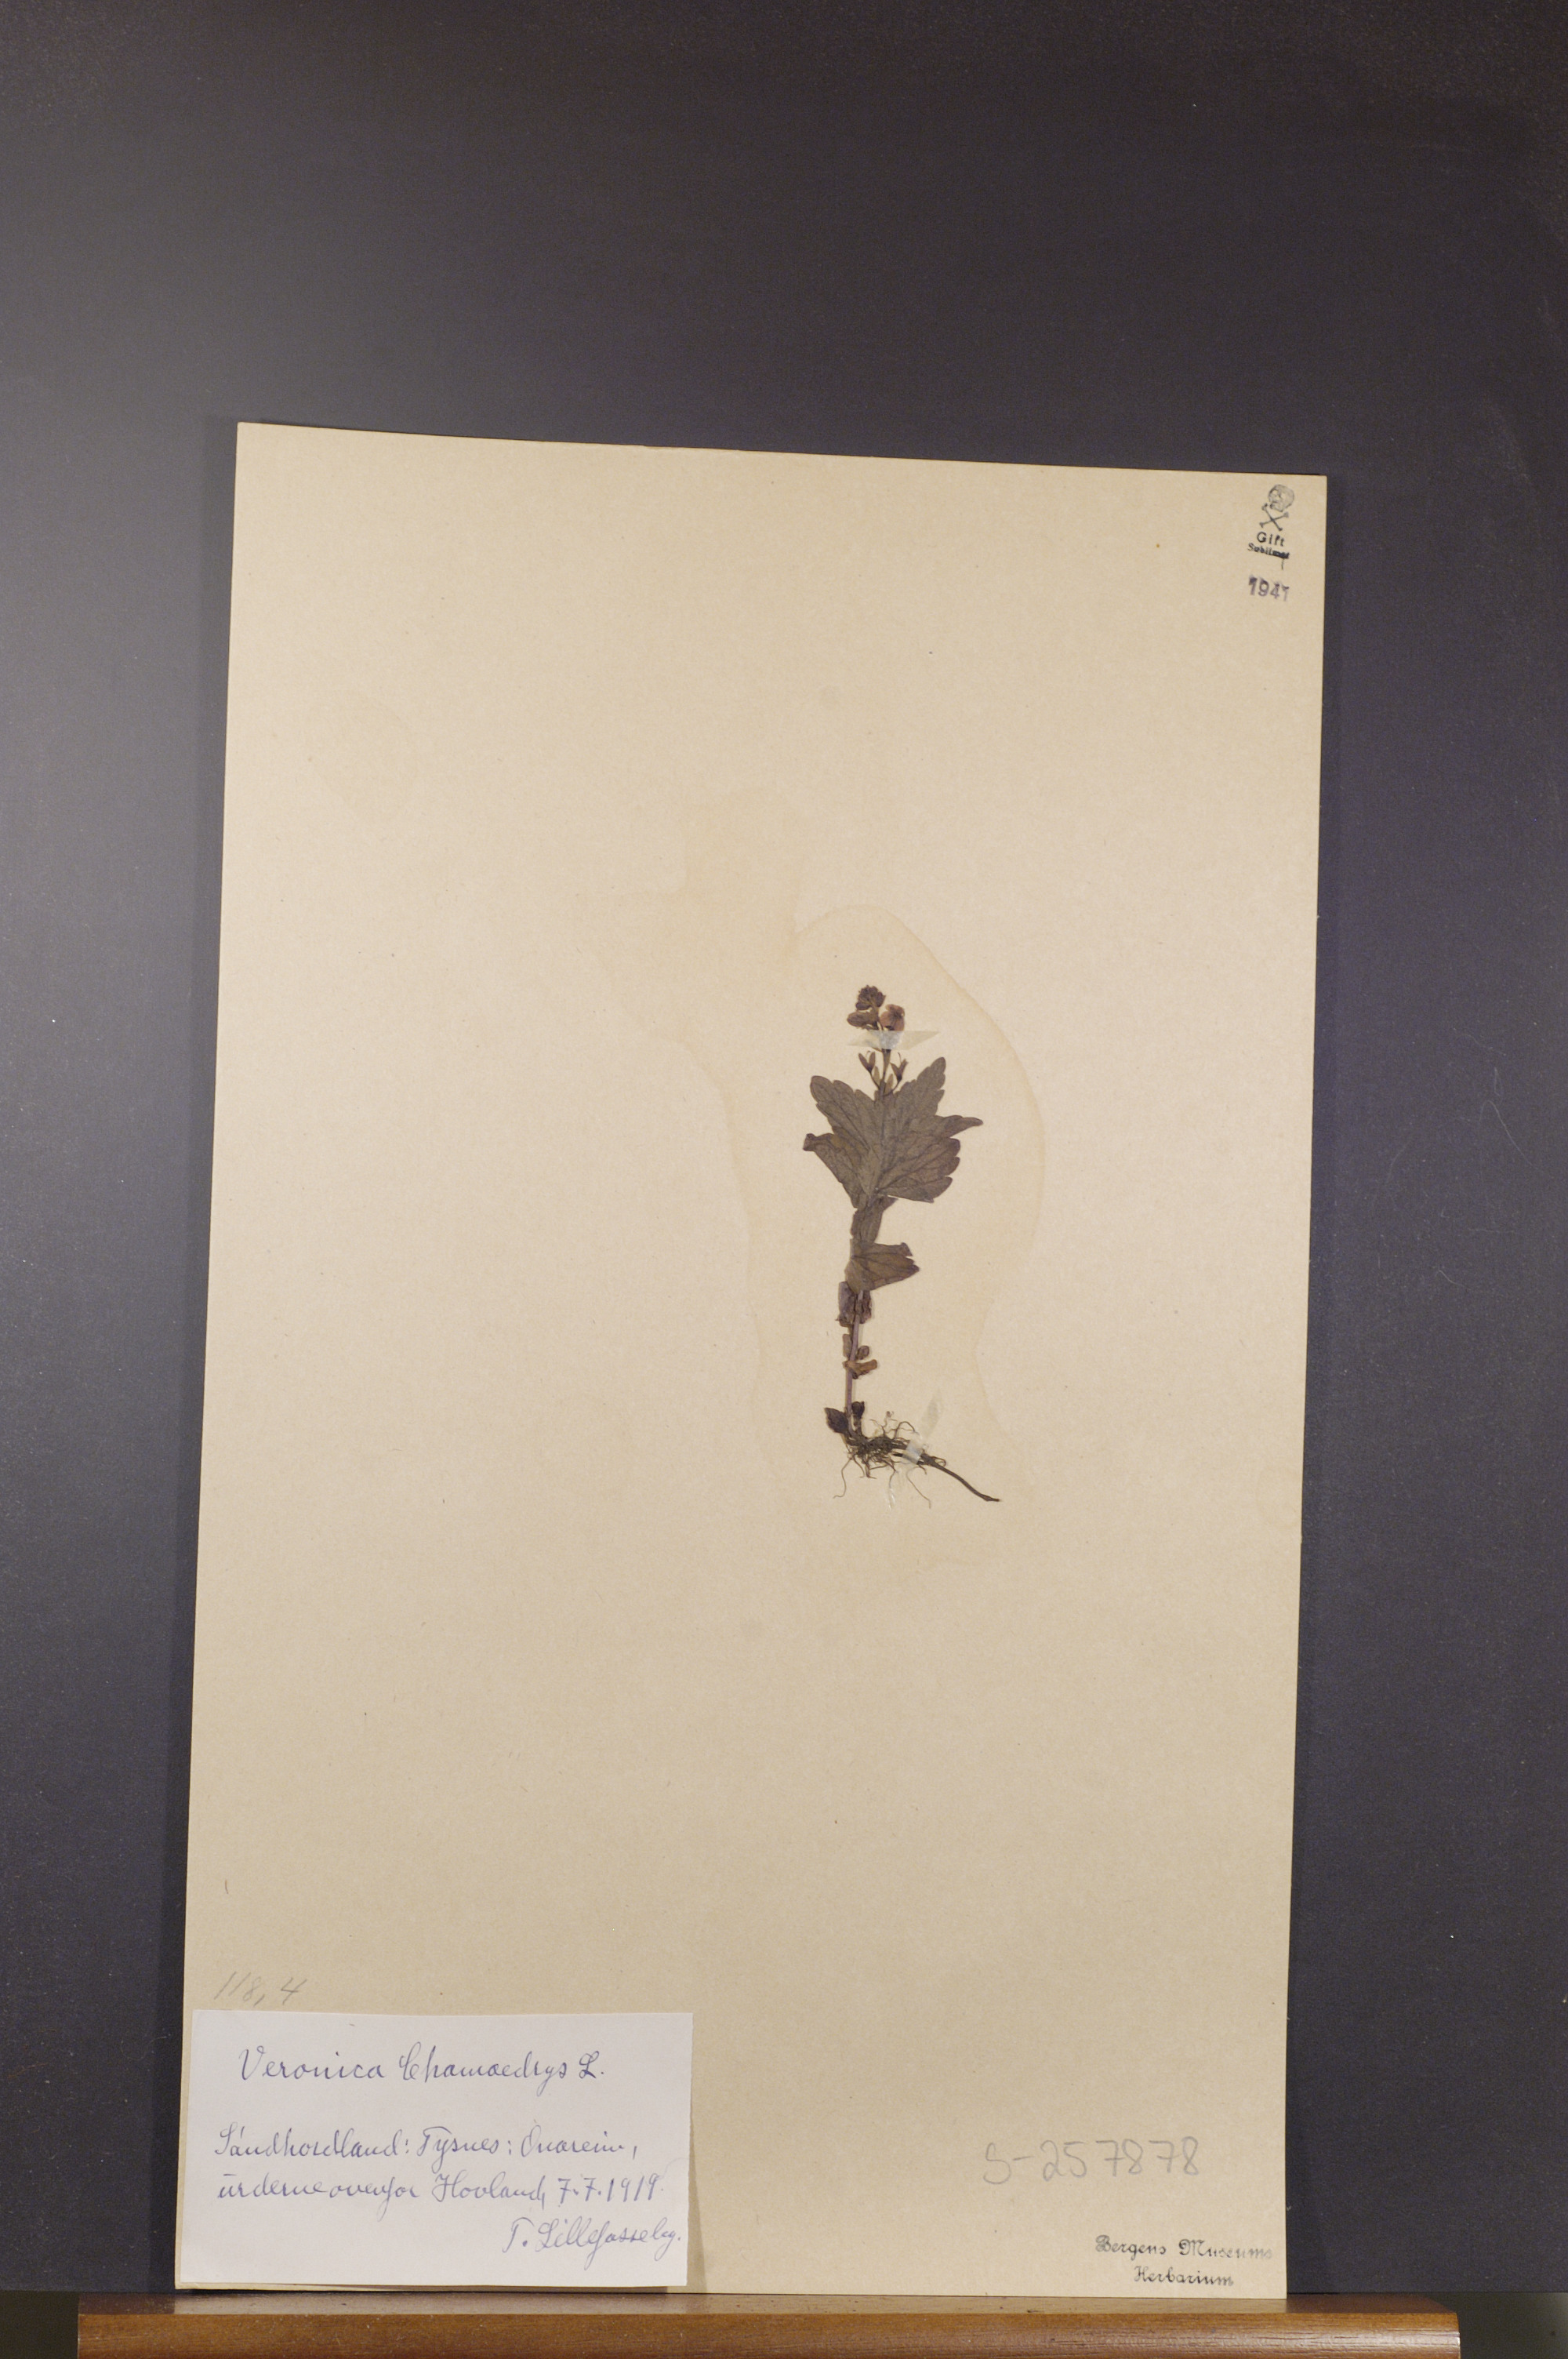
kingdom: Plantae
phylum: Tracheophyta
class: Magnoliopsida
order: Lamiales
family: Plantaginaceae
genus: Veronica
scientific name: Veronica chamaedrys
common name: Germander speedwell
